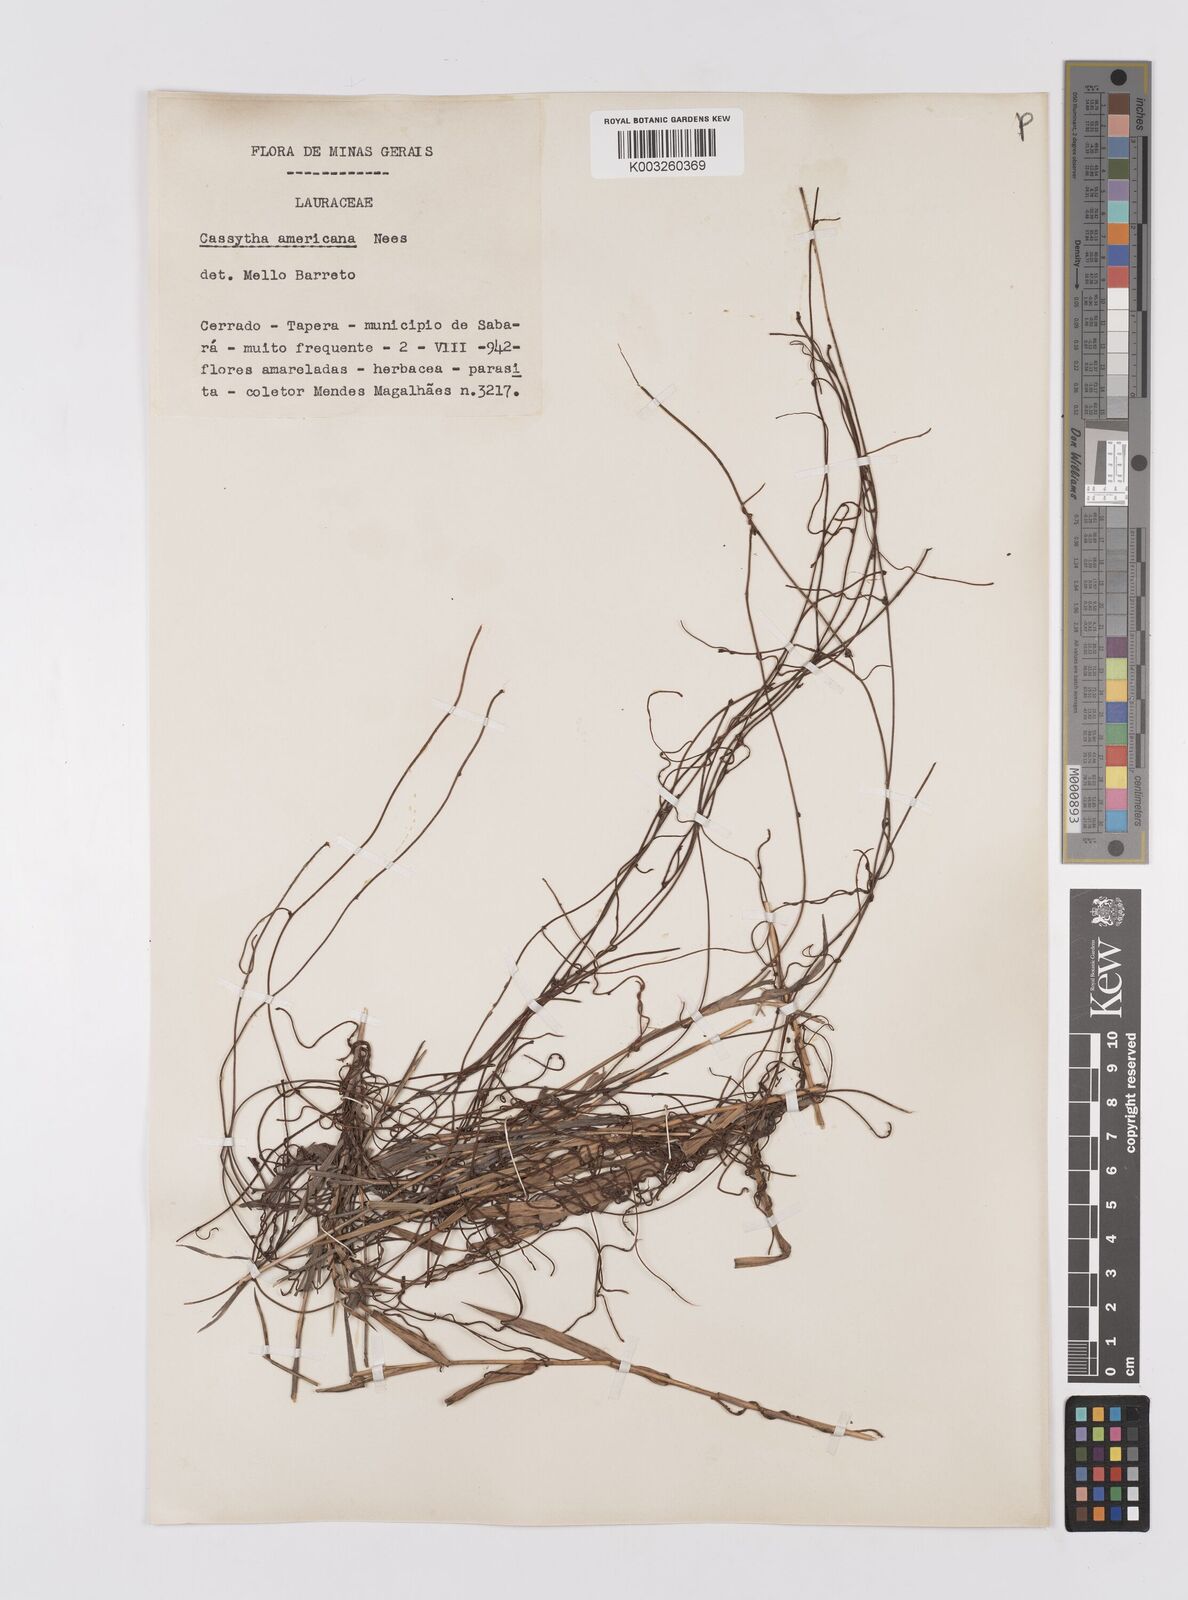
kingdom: Plantae
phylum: Tracheophyta
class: Magnoliopsida
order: Laurales
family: Lauraceae
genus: Cassytha
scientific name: Cassytha filiformis
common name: Dodder-laurel
